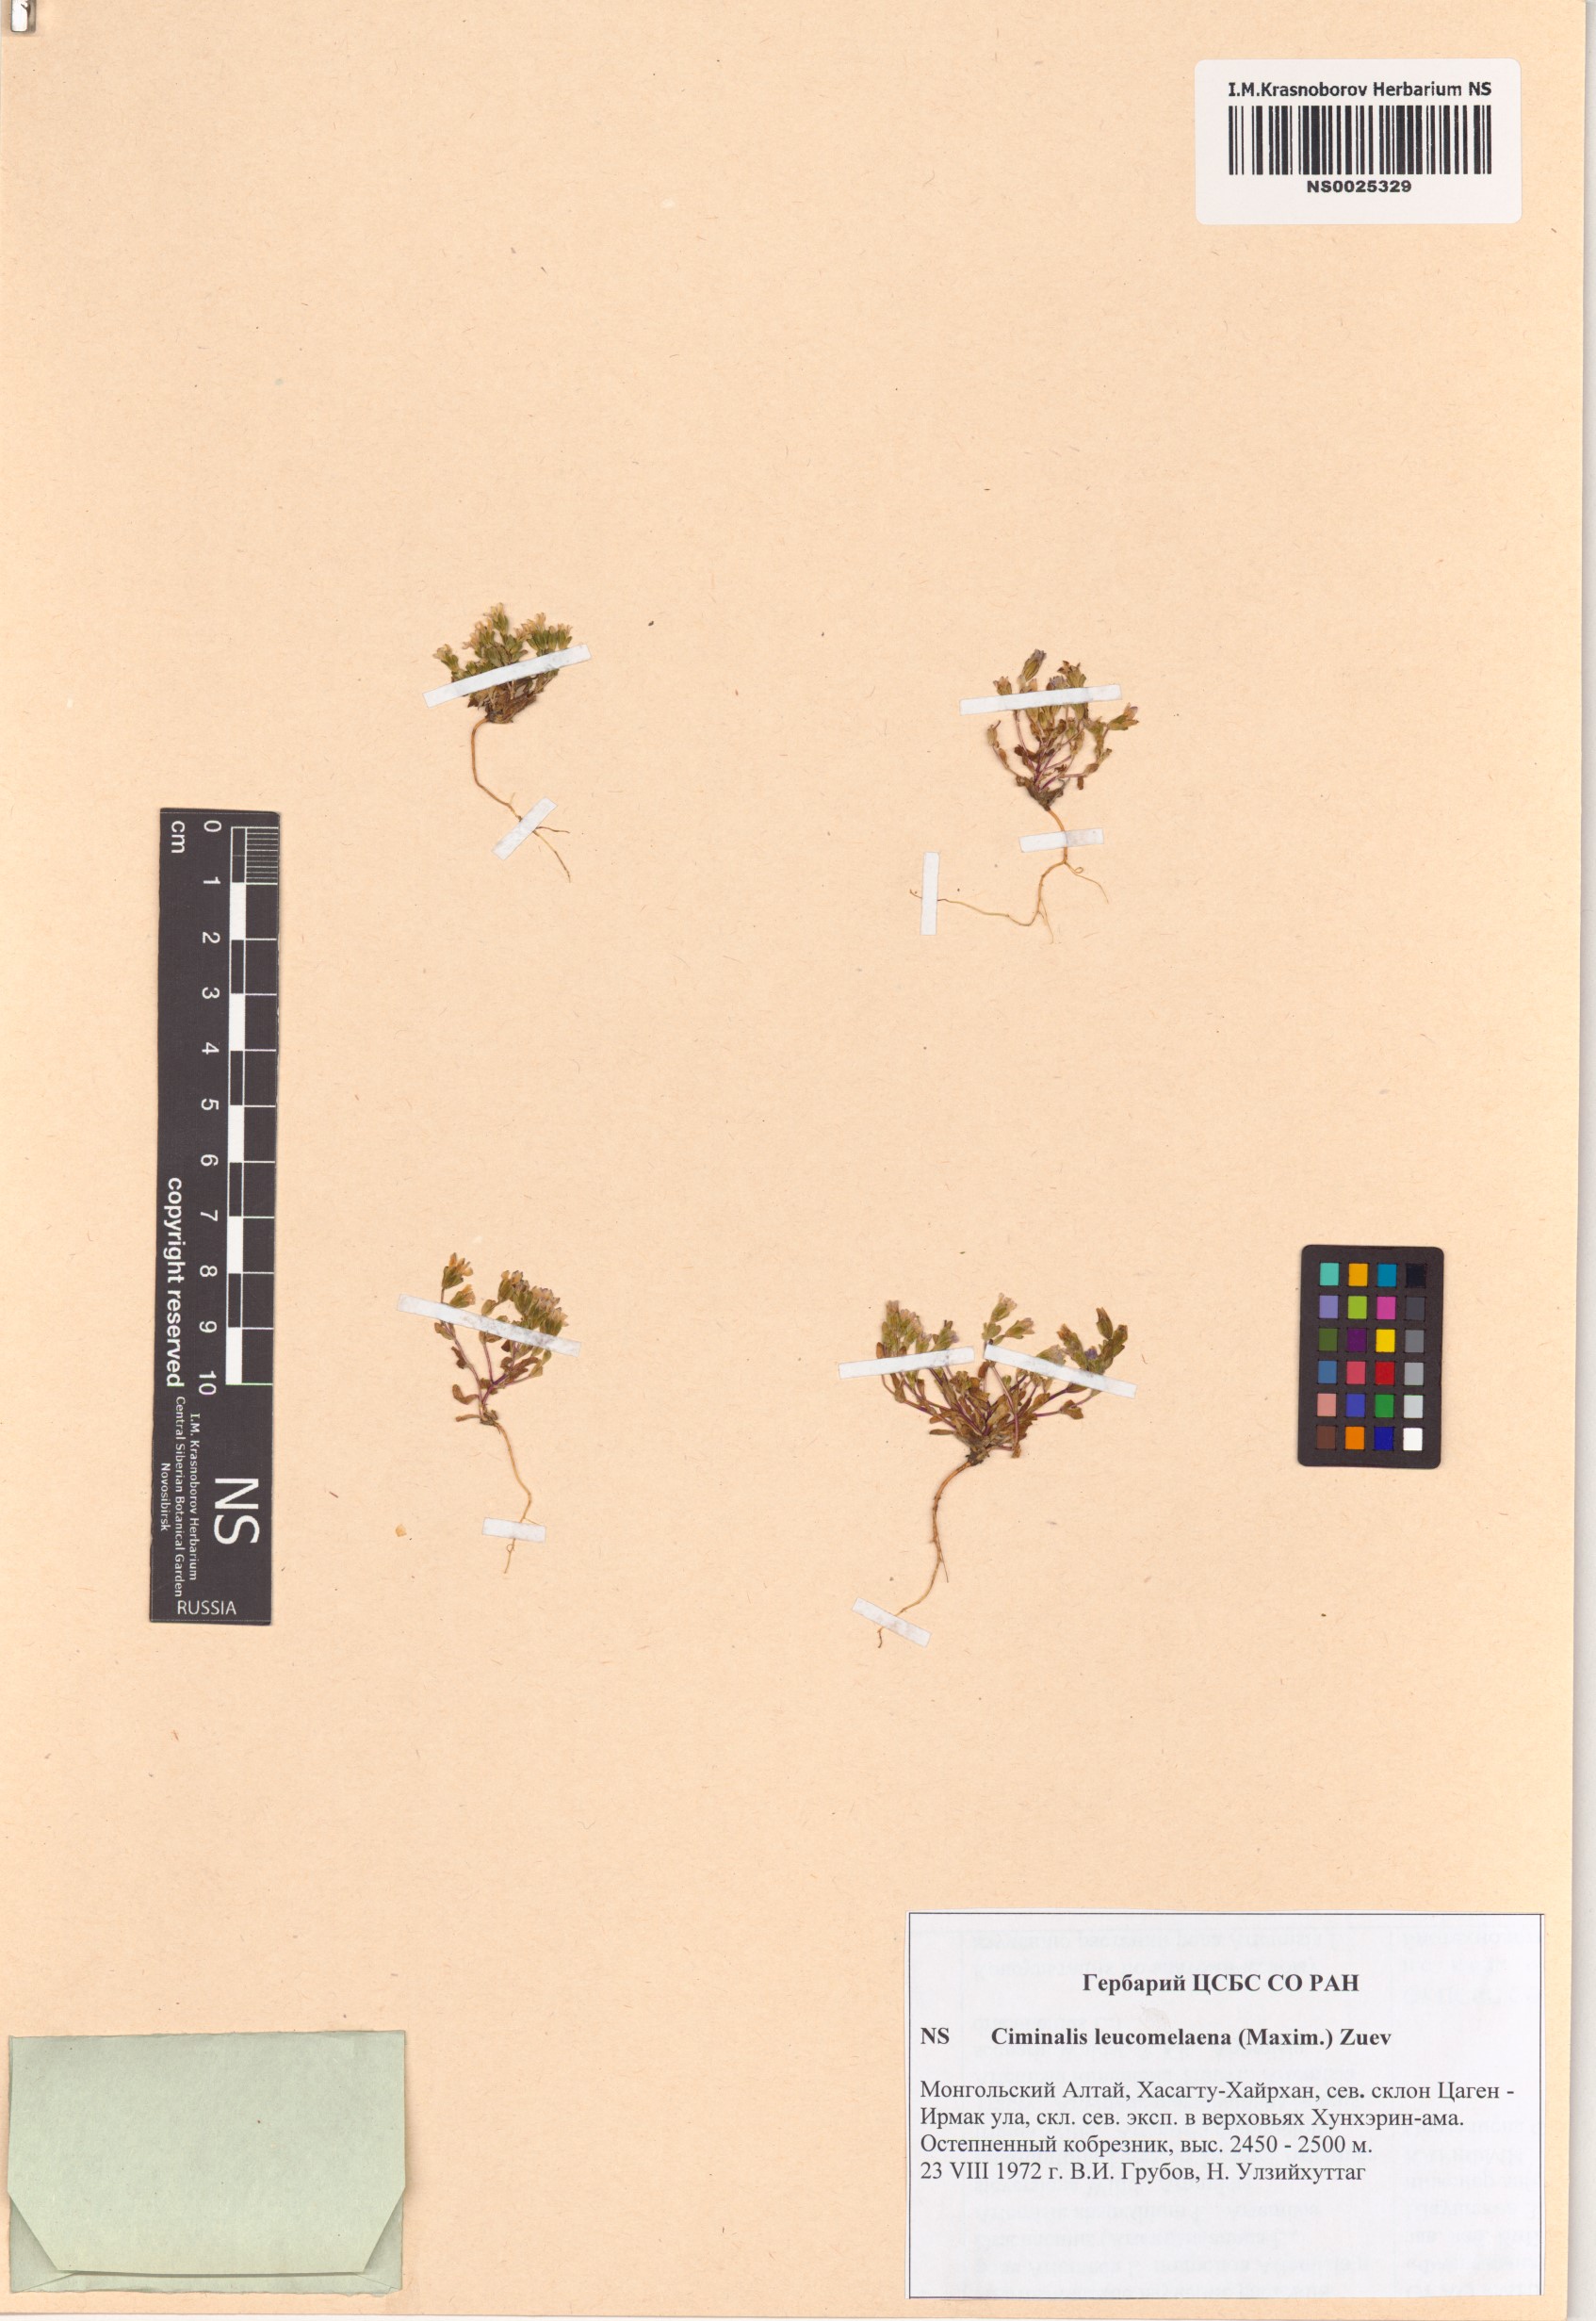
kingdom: Plantae
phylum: Tracheophyta
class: Magnoliopsida
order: Gentianales
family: Gentianaceae
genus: Gentiana
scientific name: Gentiana leucomelaena
